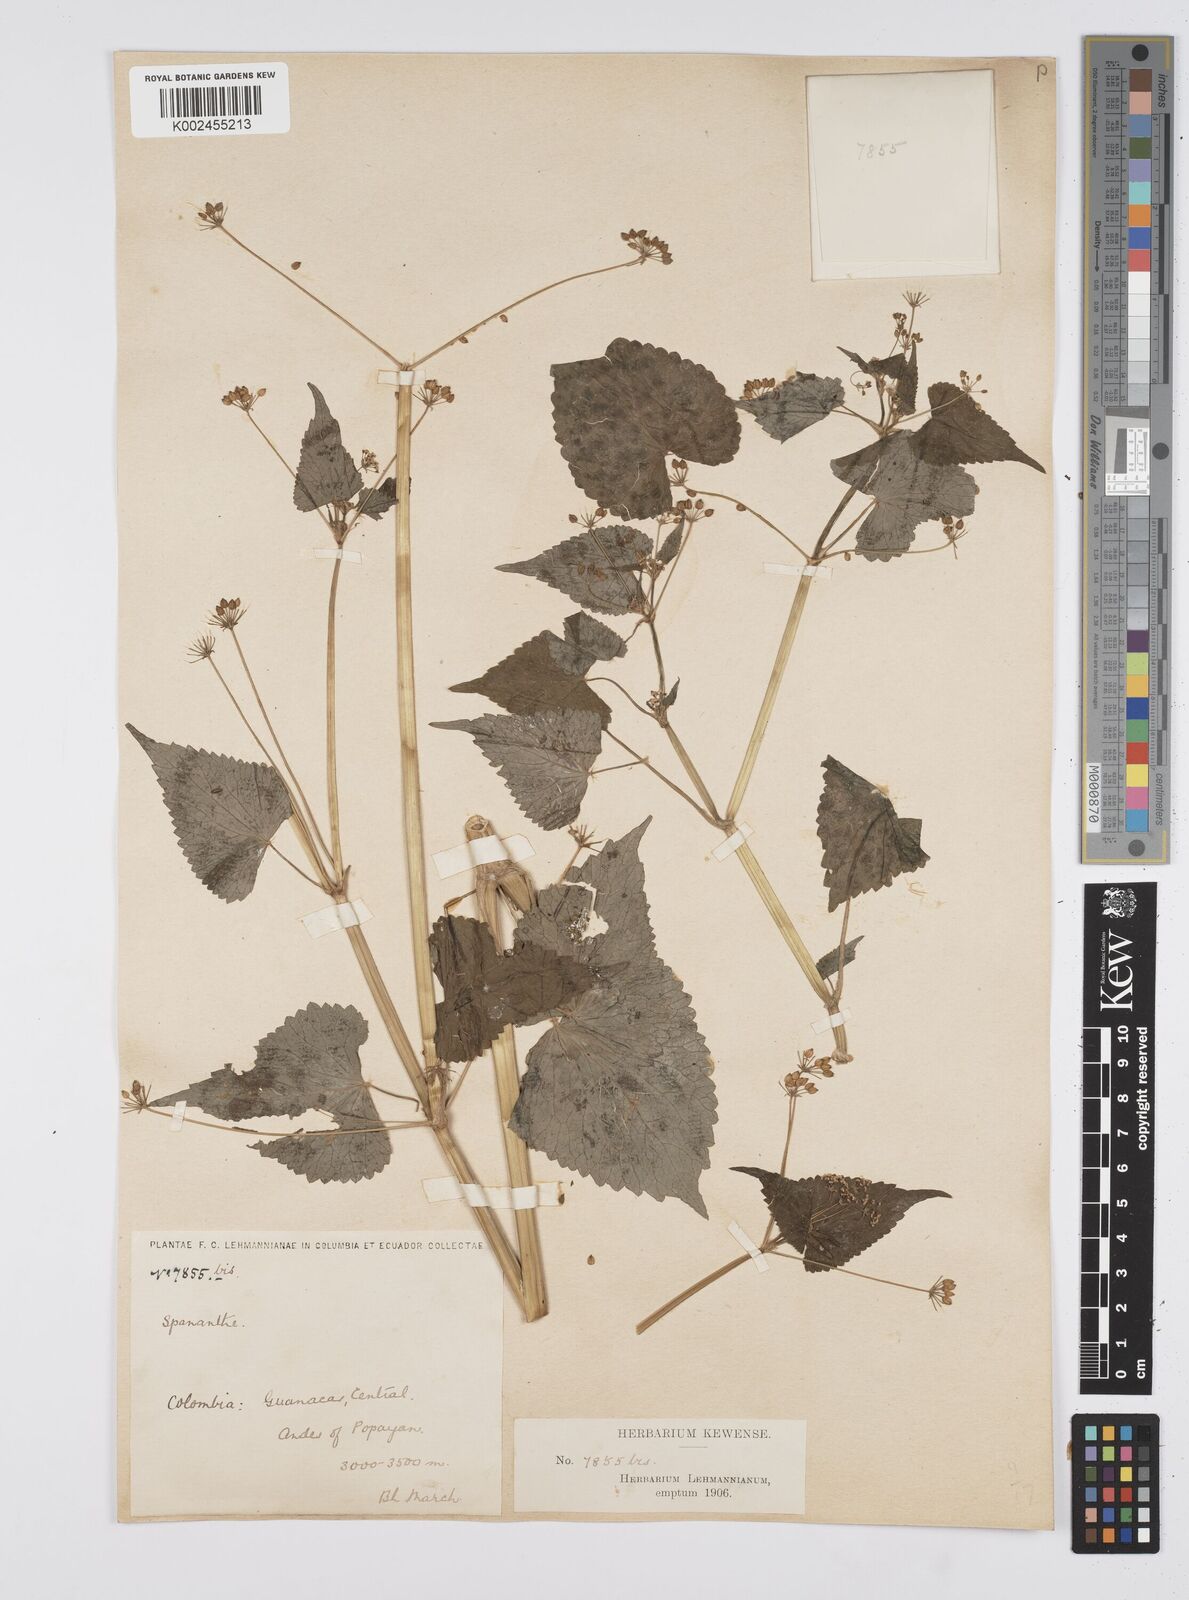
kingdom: Plantae
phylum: Tracheophyta
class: Magnoliopsida
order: Apiales
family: Apiaceae
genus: Azorella
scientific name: Azorella
